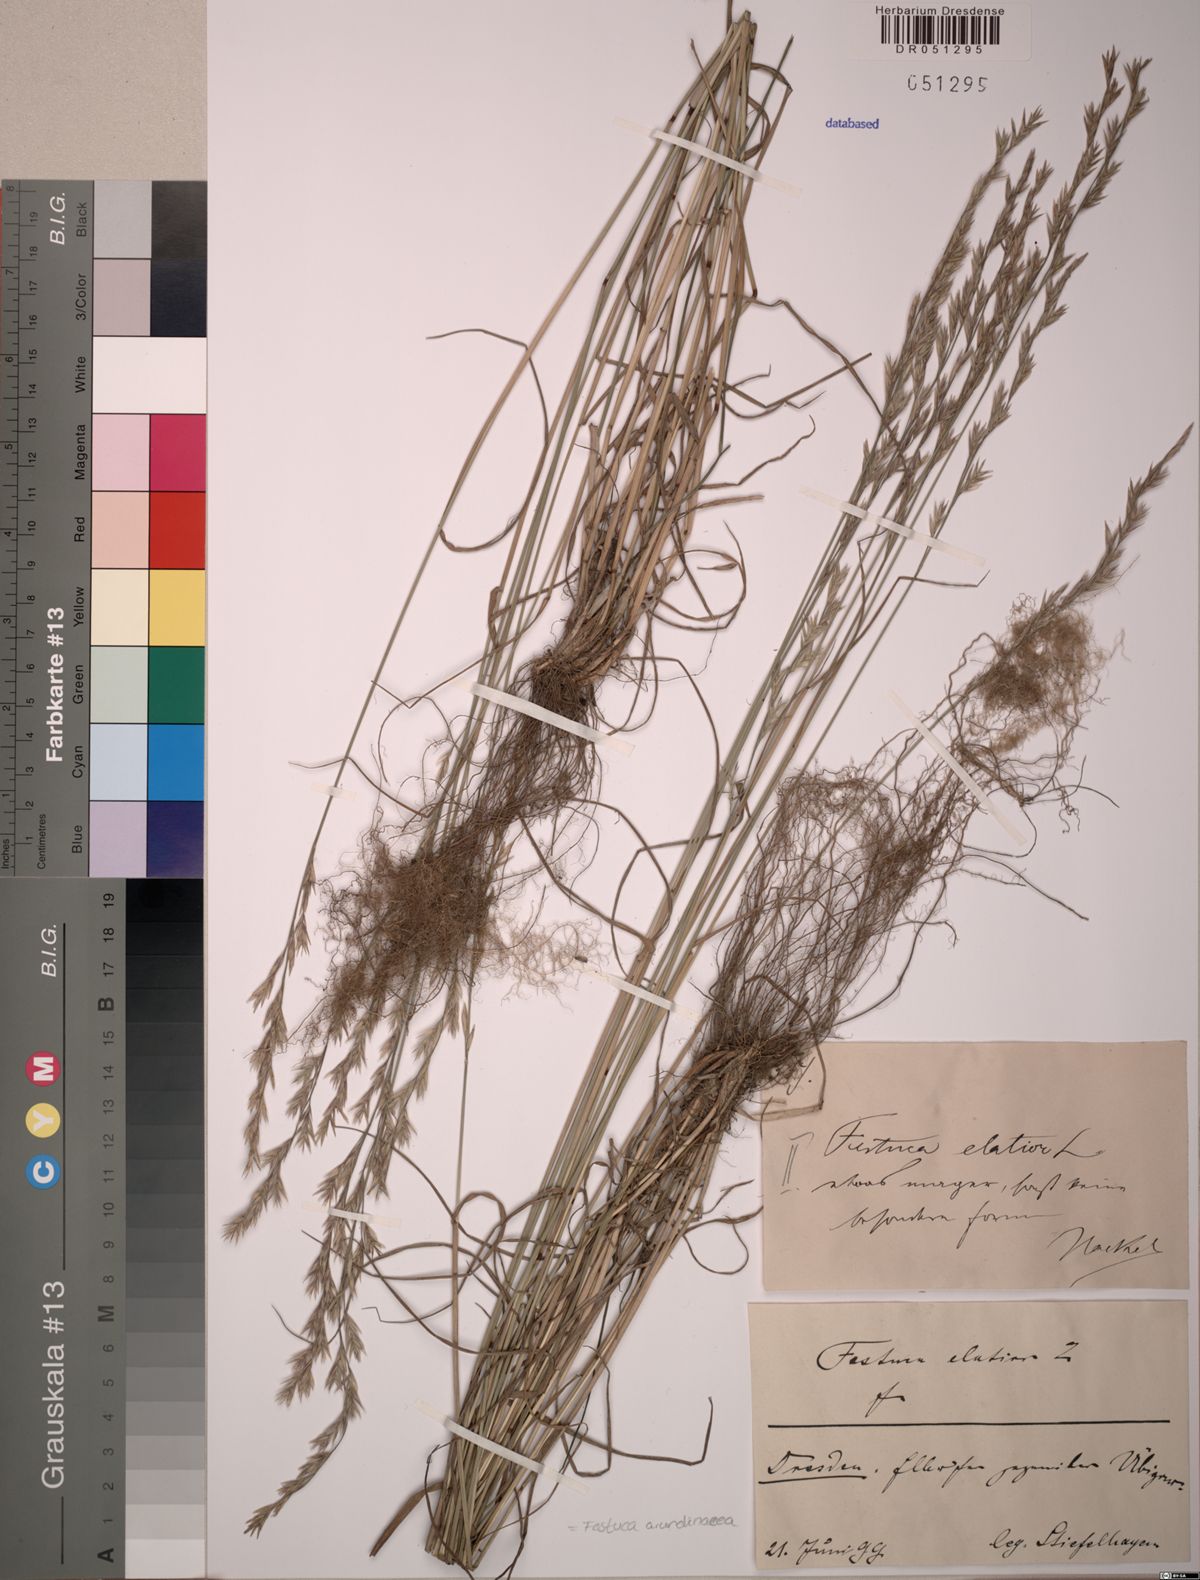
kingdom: Plantae
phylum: Tracheophyta
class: Liliopsida
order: Poales
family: Poaceae
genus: Lolium
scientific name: Lolium arundinaceum
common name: Reed fescue
